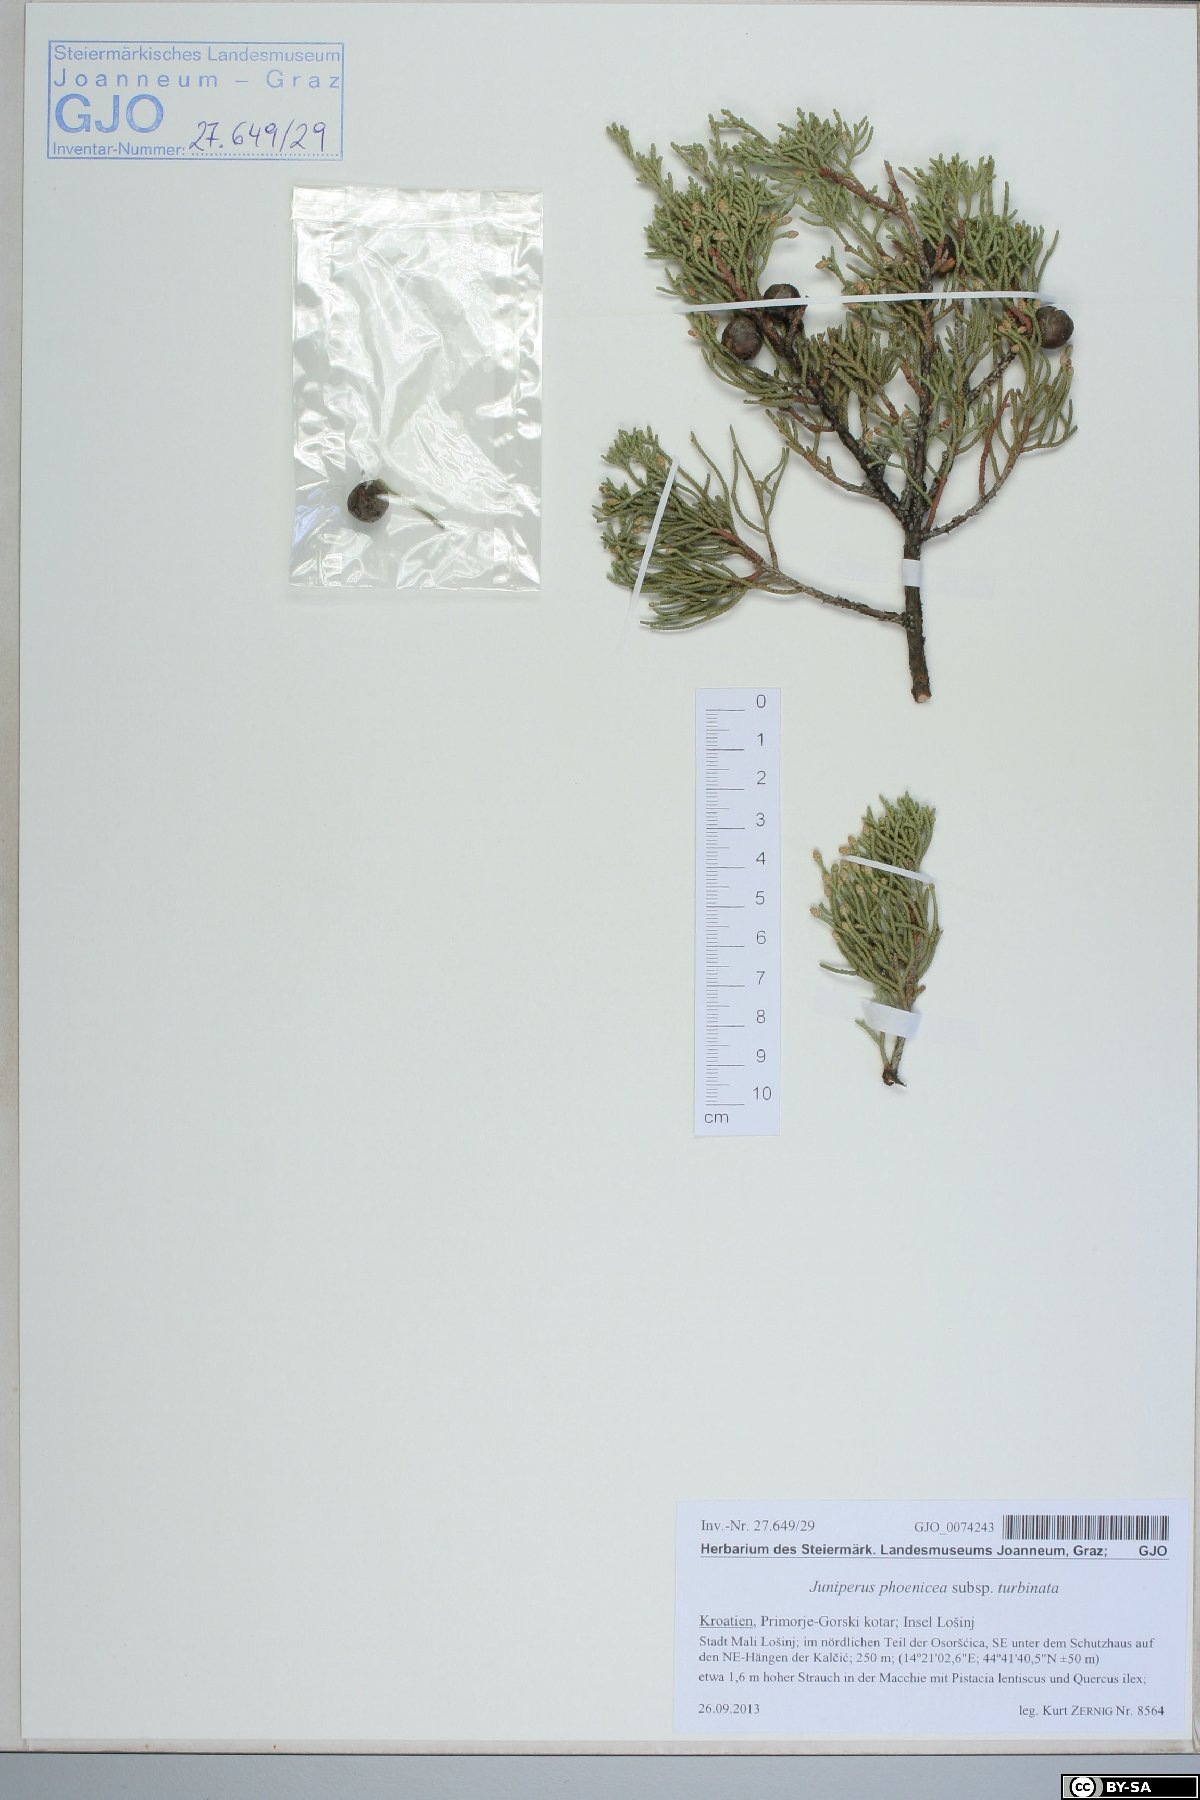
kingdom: Plantae
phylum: Tracheophyta
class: Pinopsida
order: Pinales
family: Cupressaceae
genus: Juniperus
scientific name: Juniperus phoenicea
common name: Phoenician juniper
